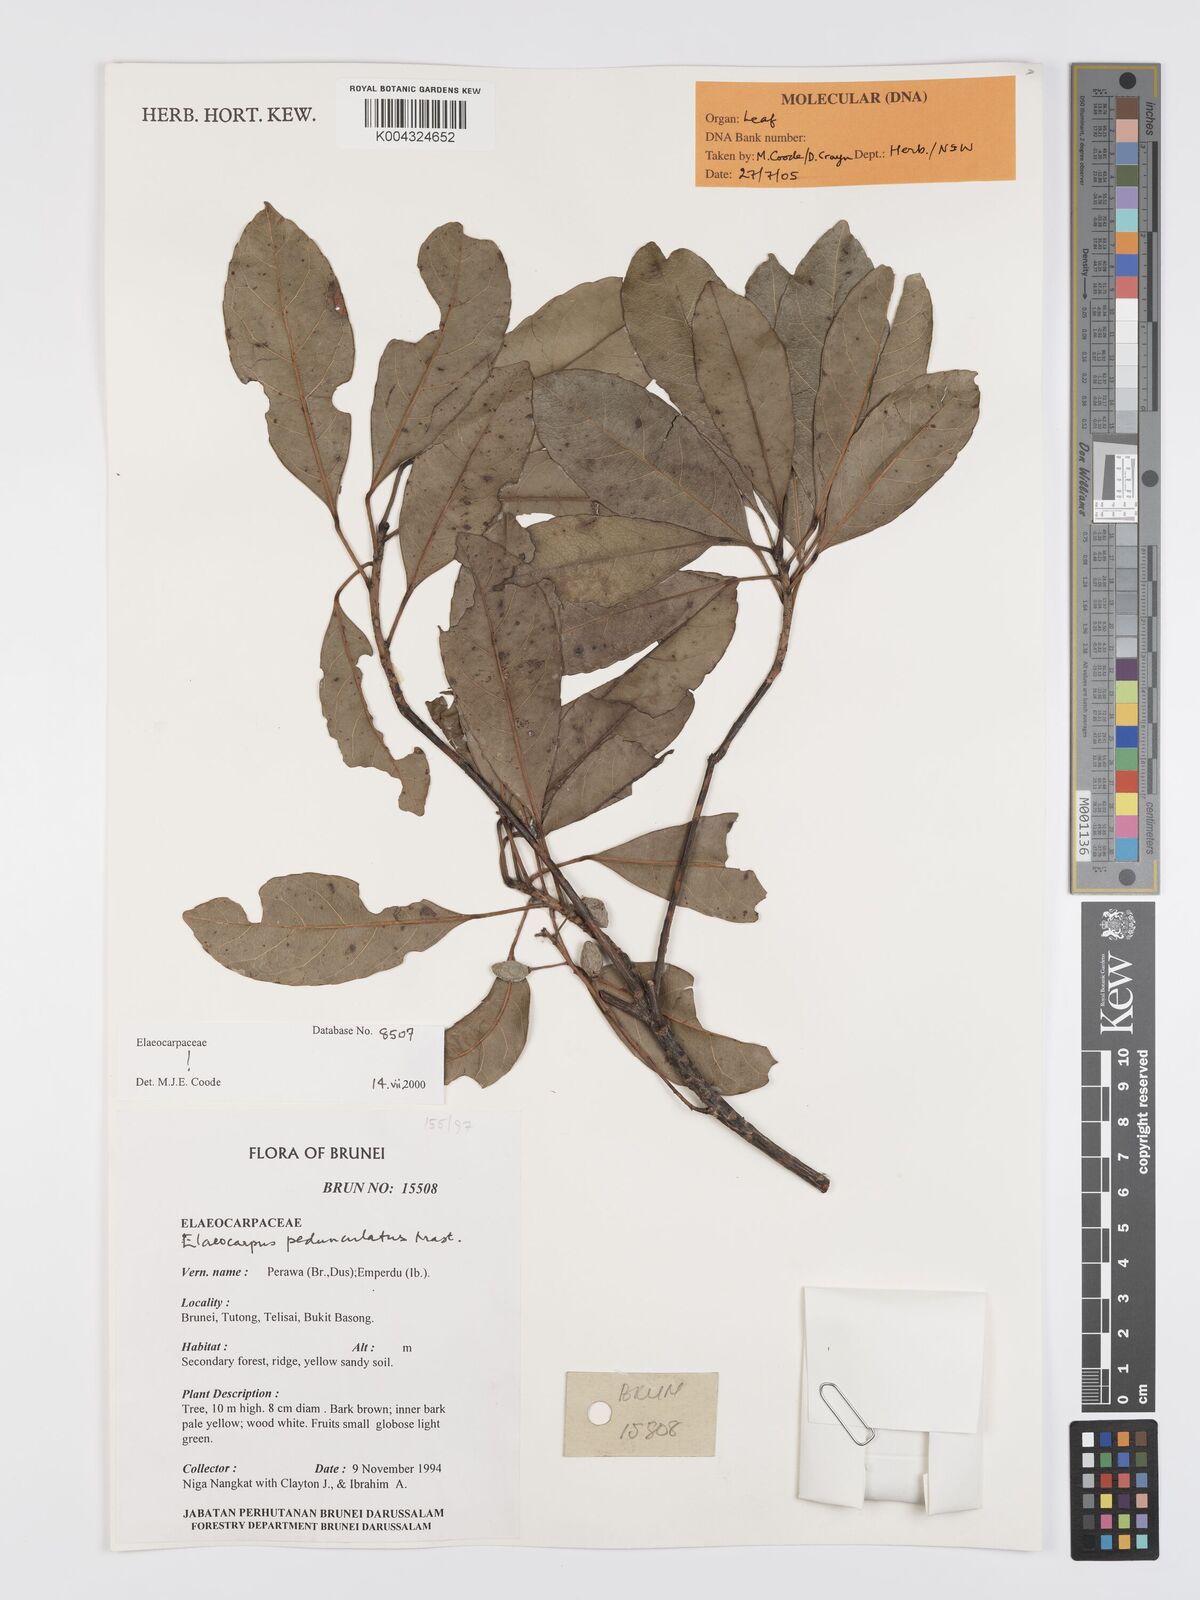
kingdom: Plantae
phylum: Tracheophyta
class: Magnoliopsida
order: Oxalidales
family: Elaeocarpaceae
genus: Elaeocarpus
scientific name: Elaeocarpus pedunculatus
